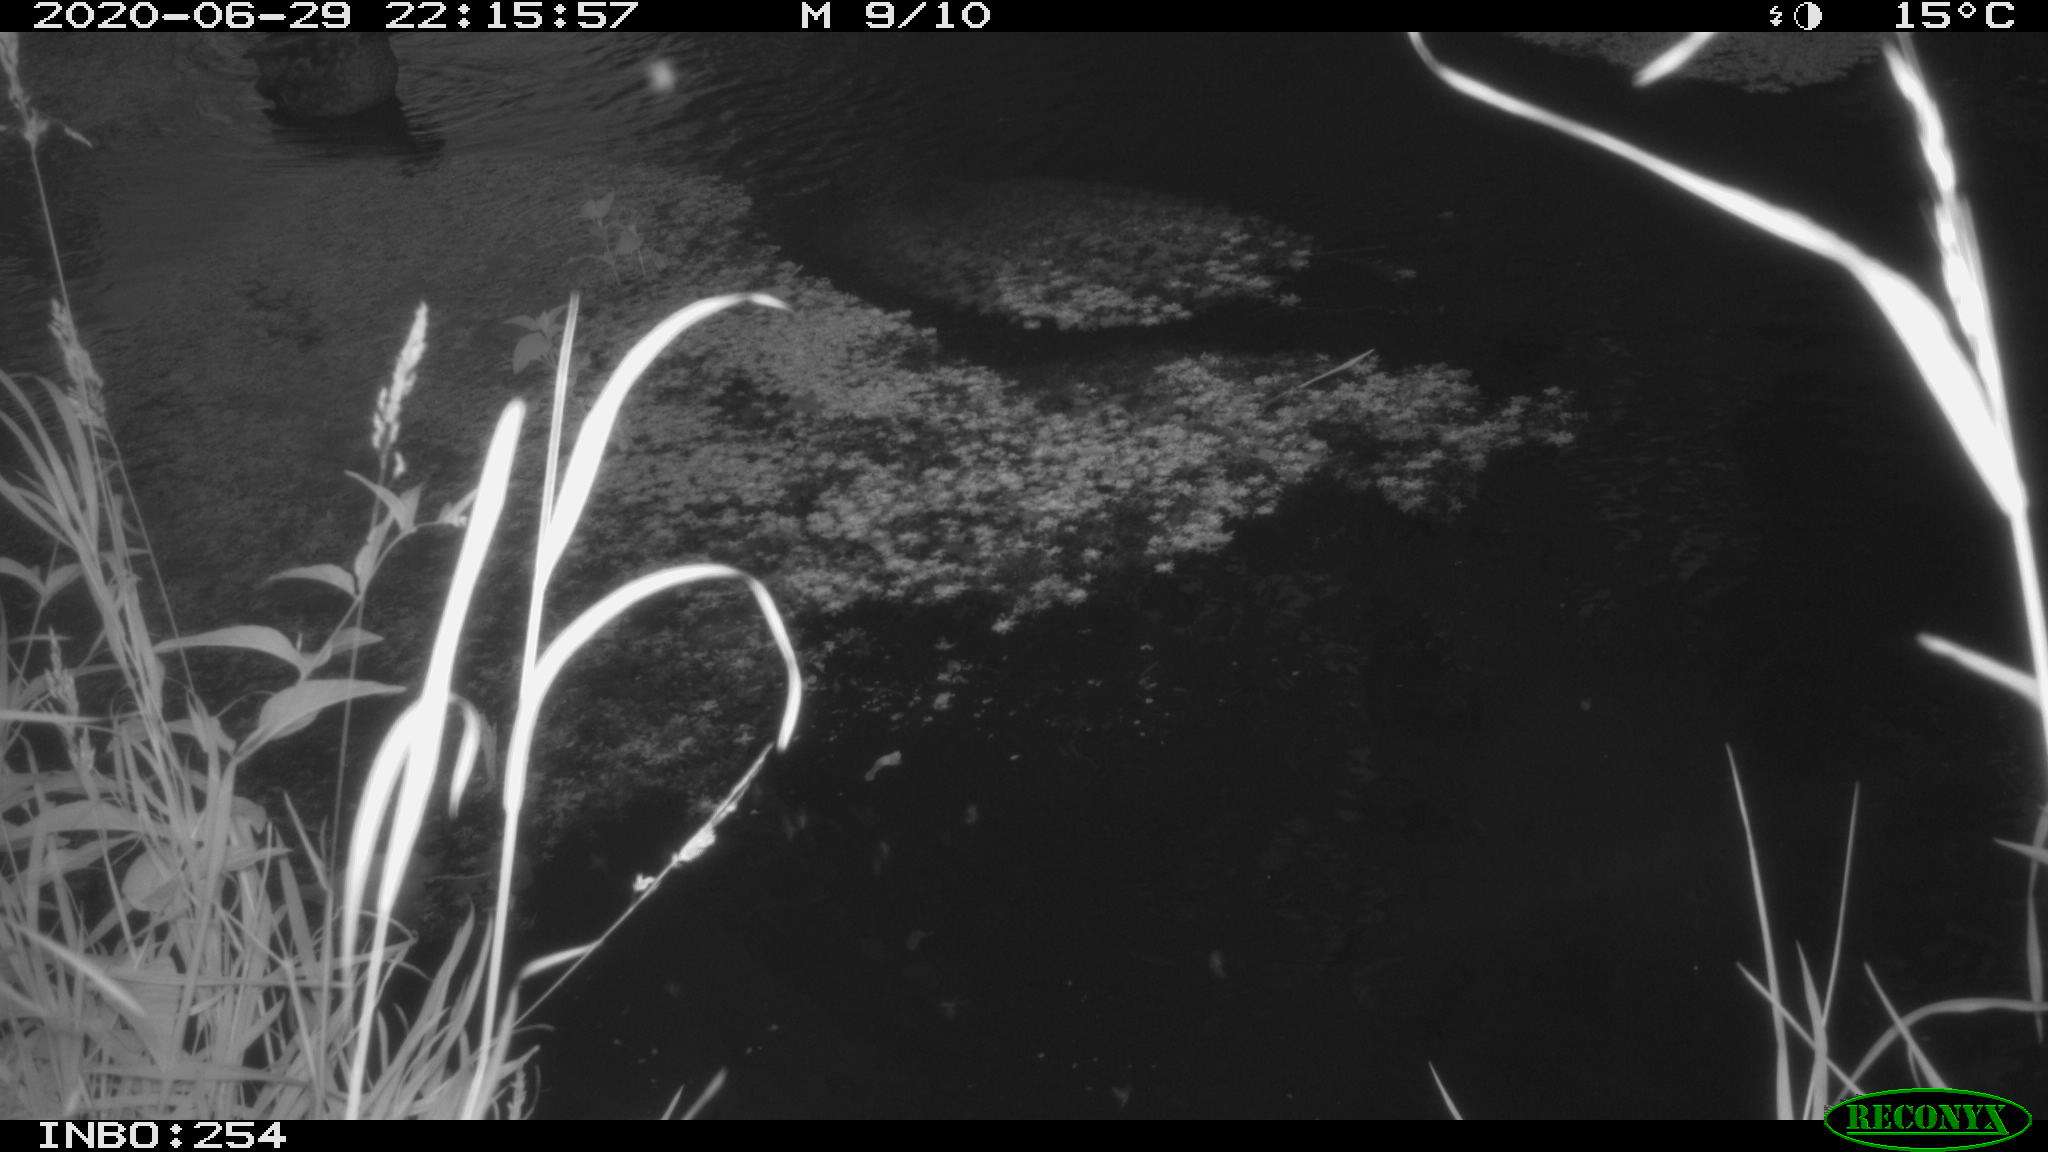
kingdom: Animalia
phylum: Chordata
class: Aves
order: Anseriformes
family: Anatidae
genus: Anas
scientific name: Anas platyrhynchos
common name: Mallard
